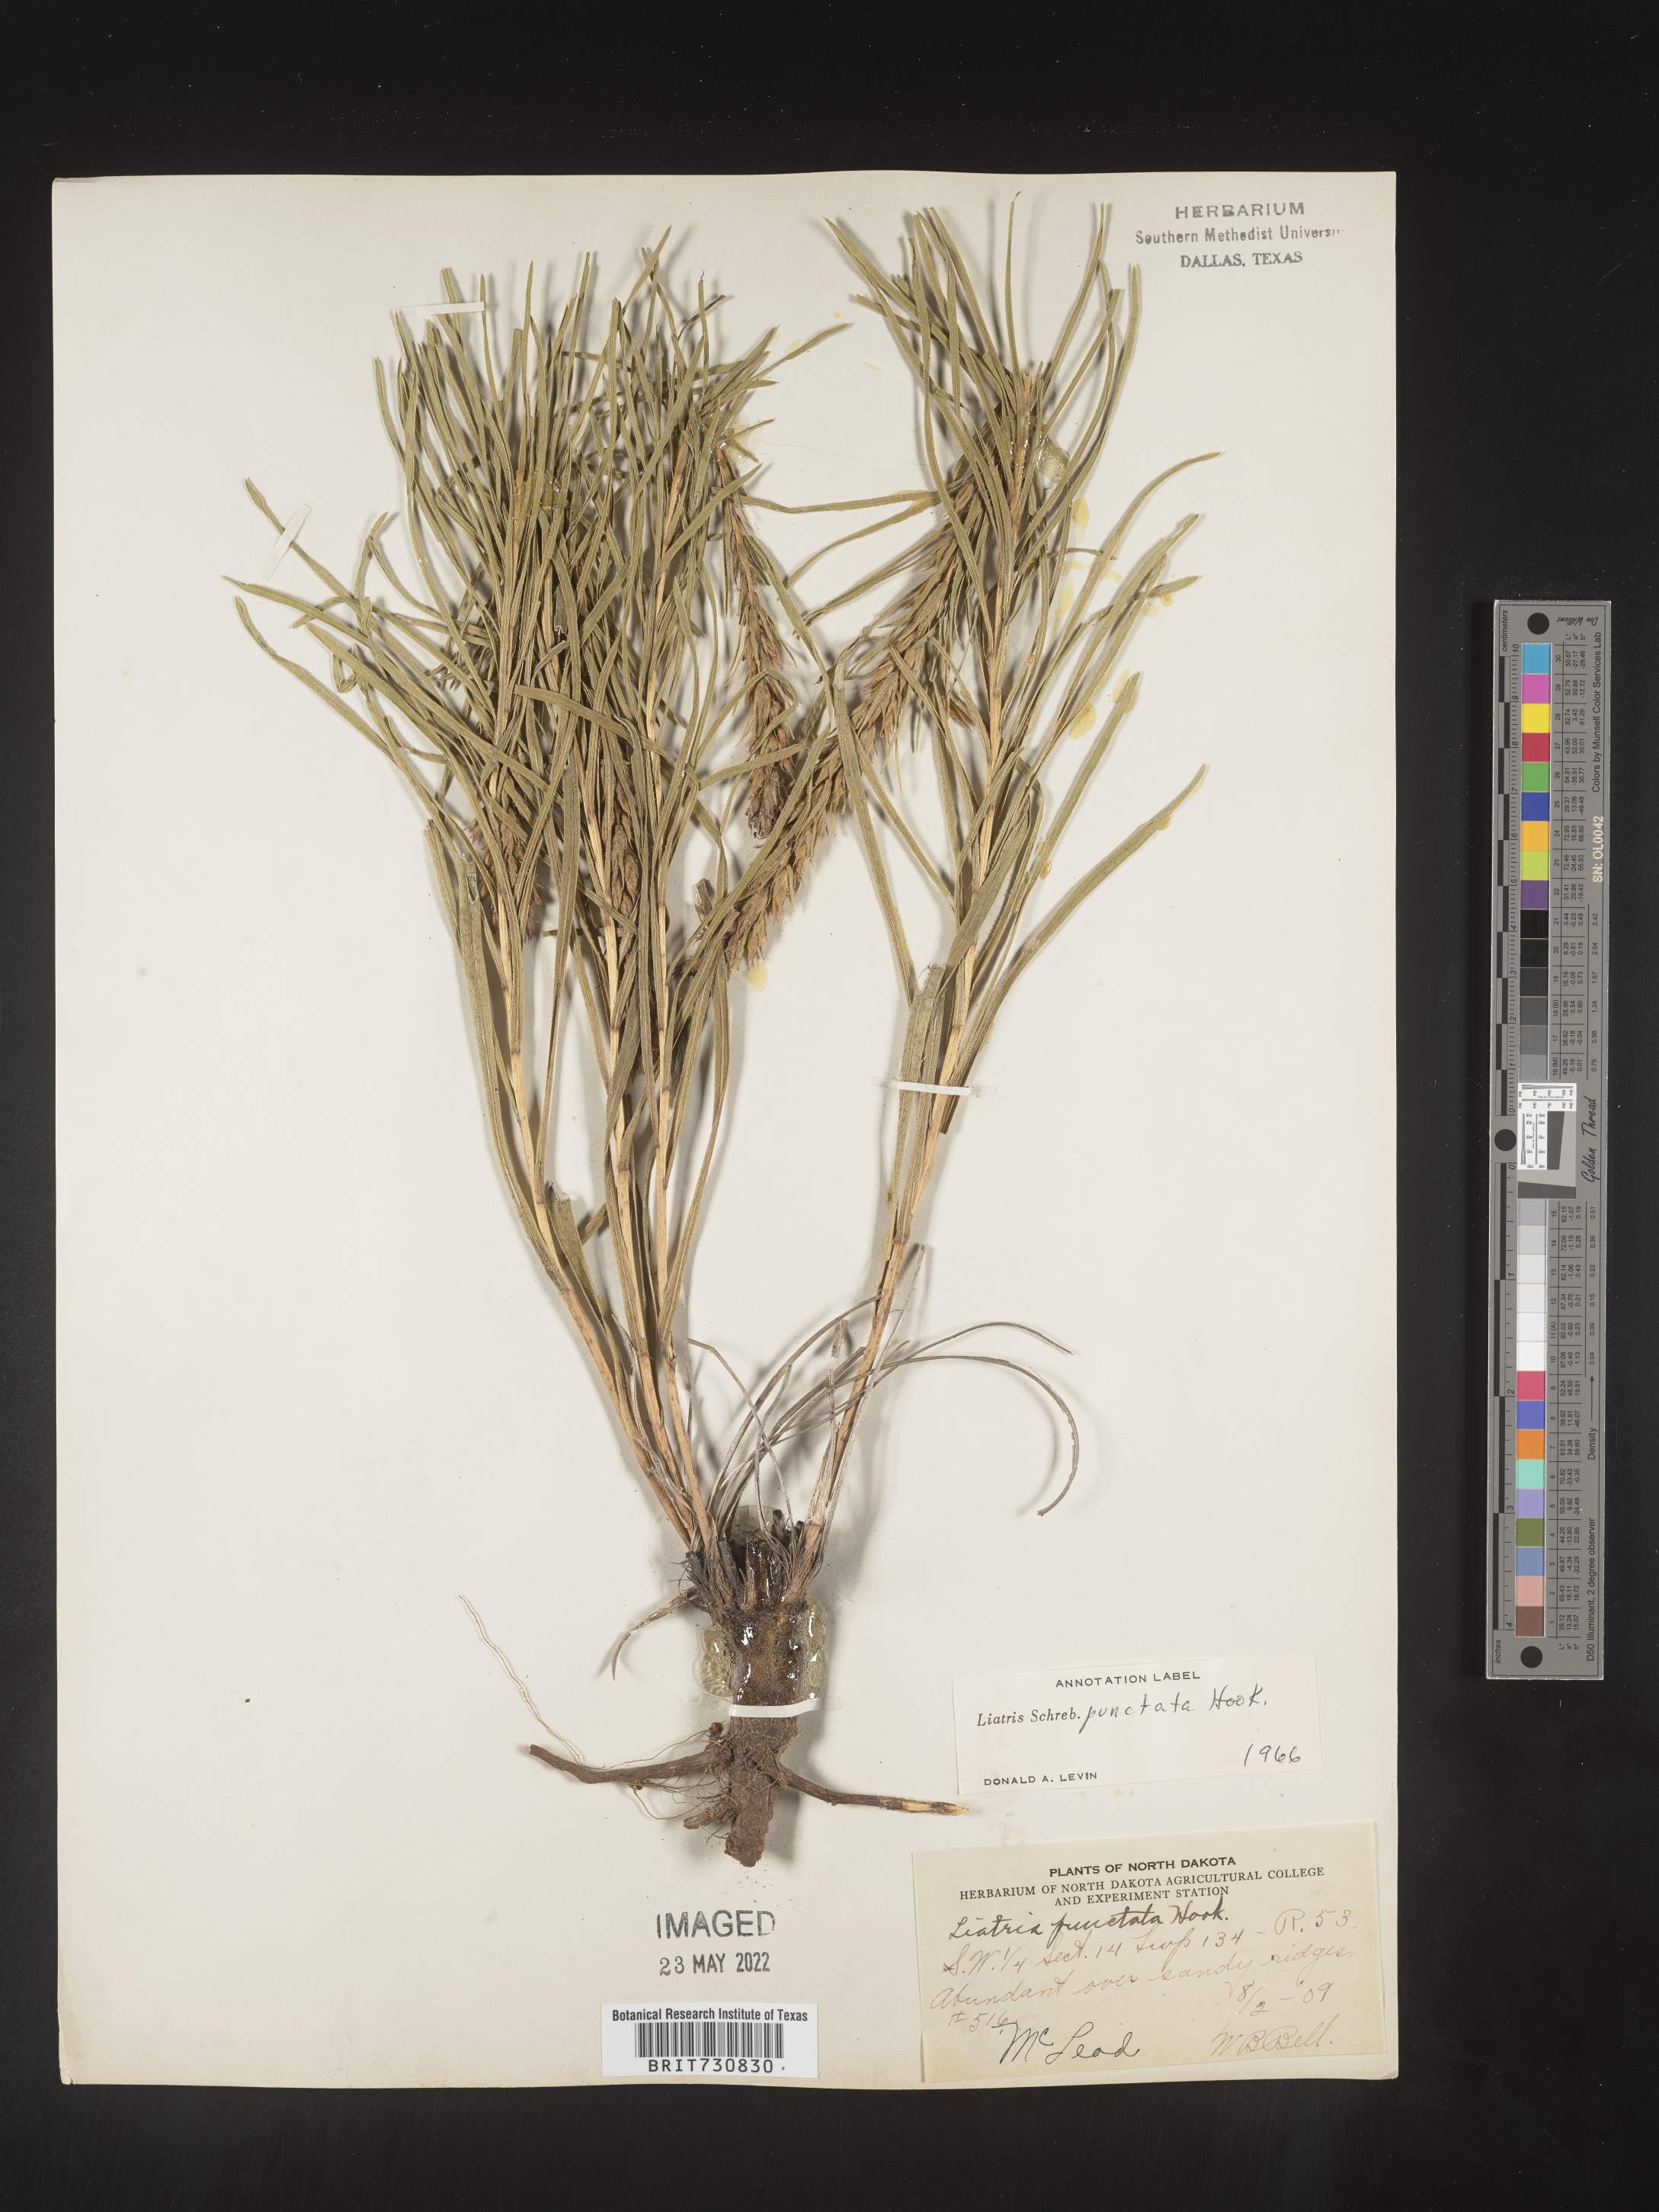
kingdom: Plantae
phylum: Tracheophyta
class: Magnoliopsida
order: Asterales
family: Asteraceae
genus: Liatris
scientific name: Liatris punctata
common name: Dotted gayfeather
